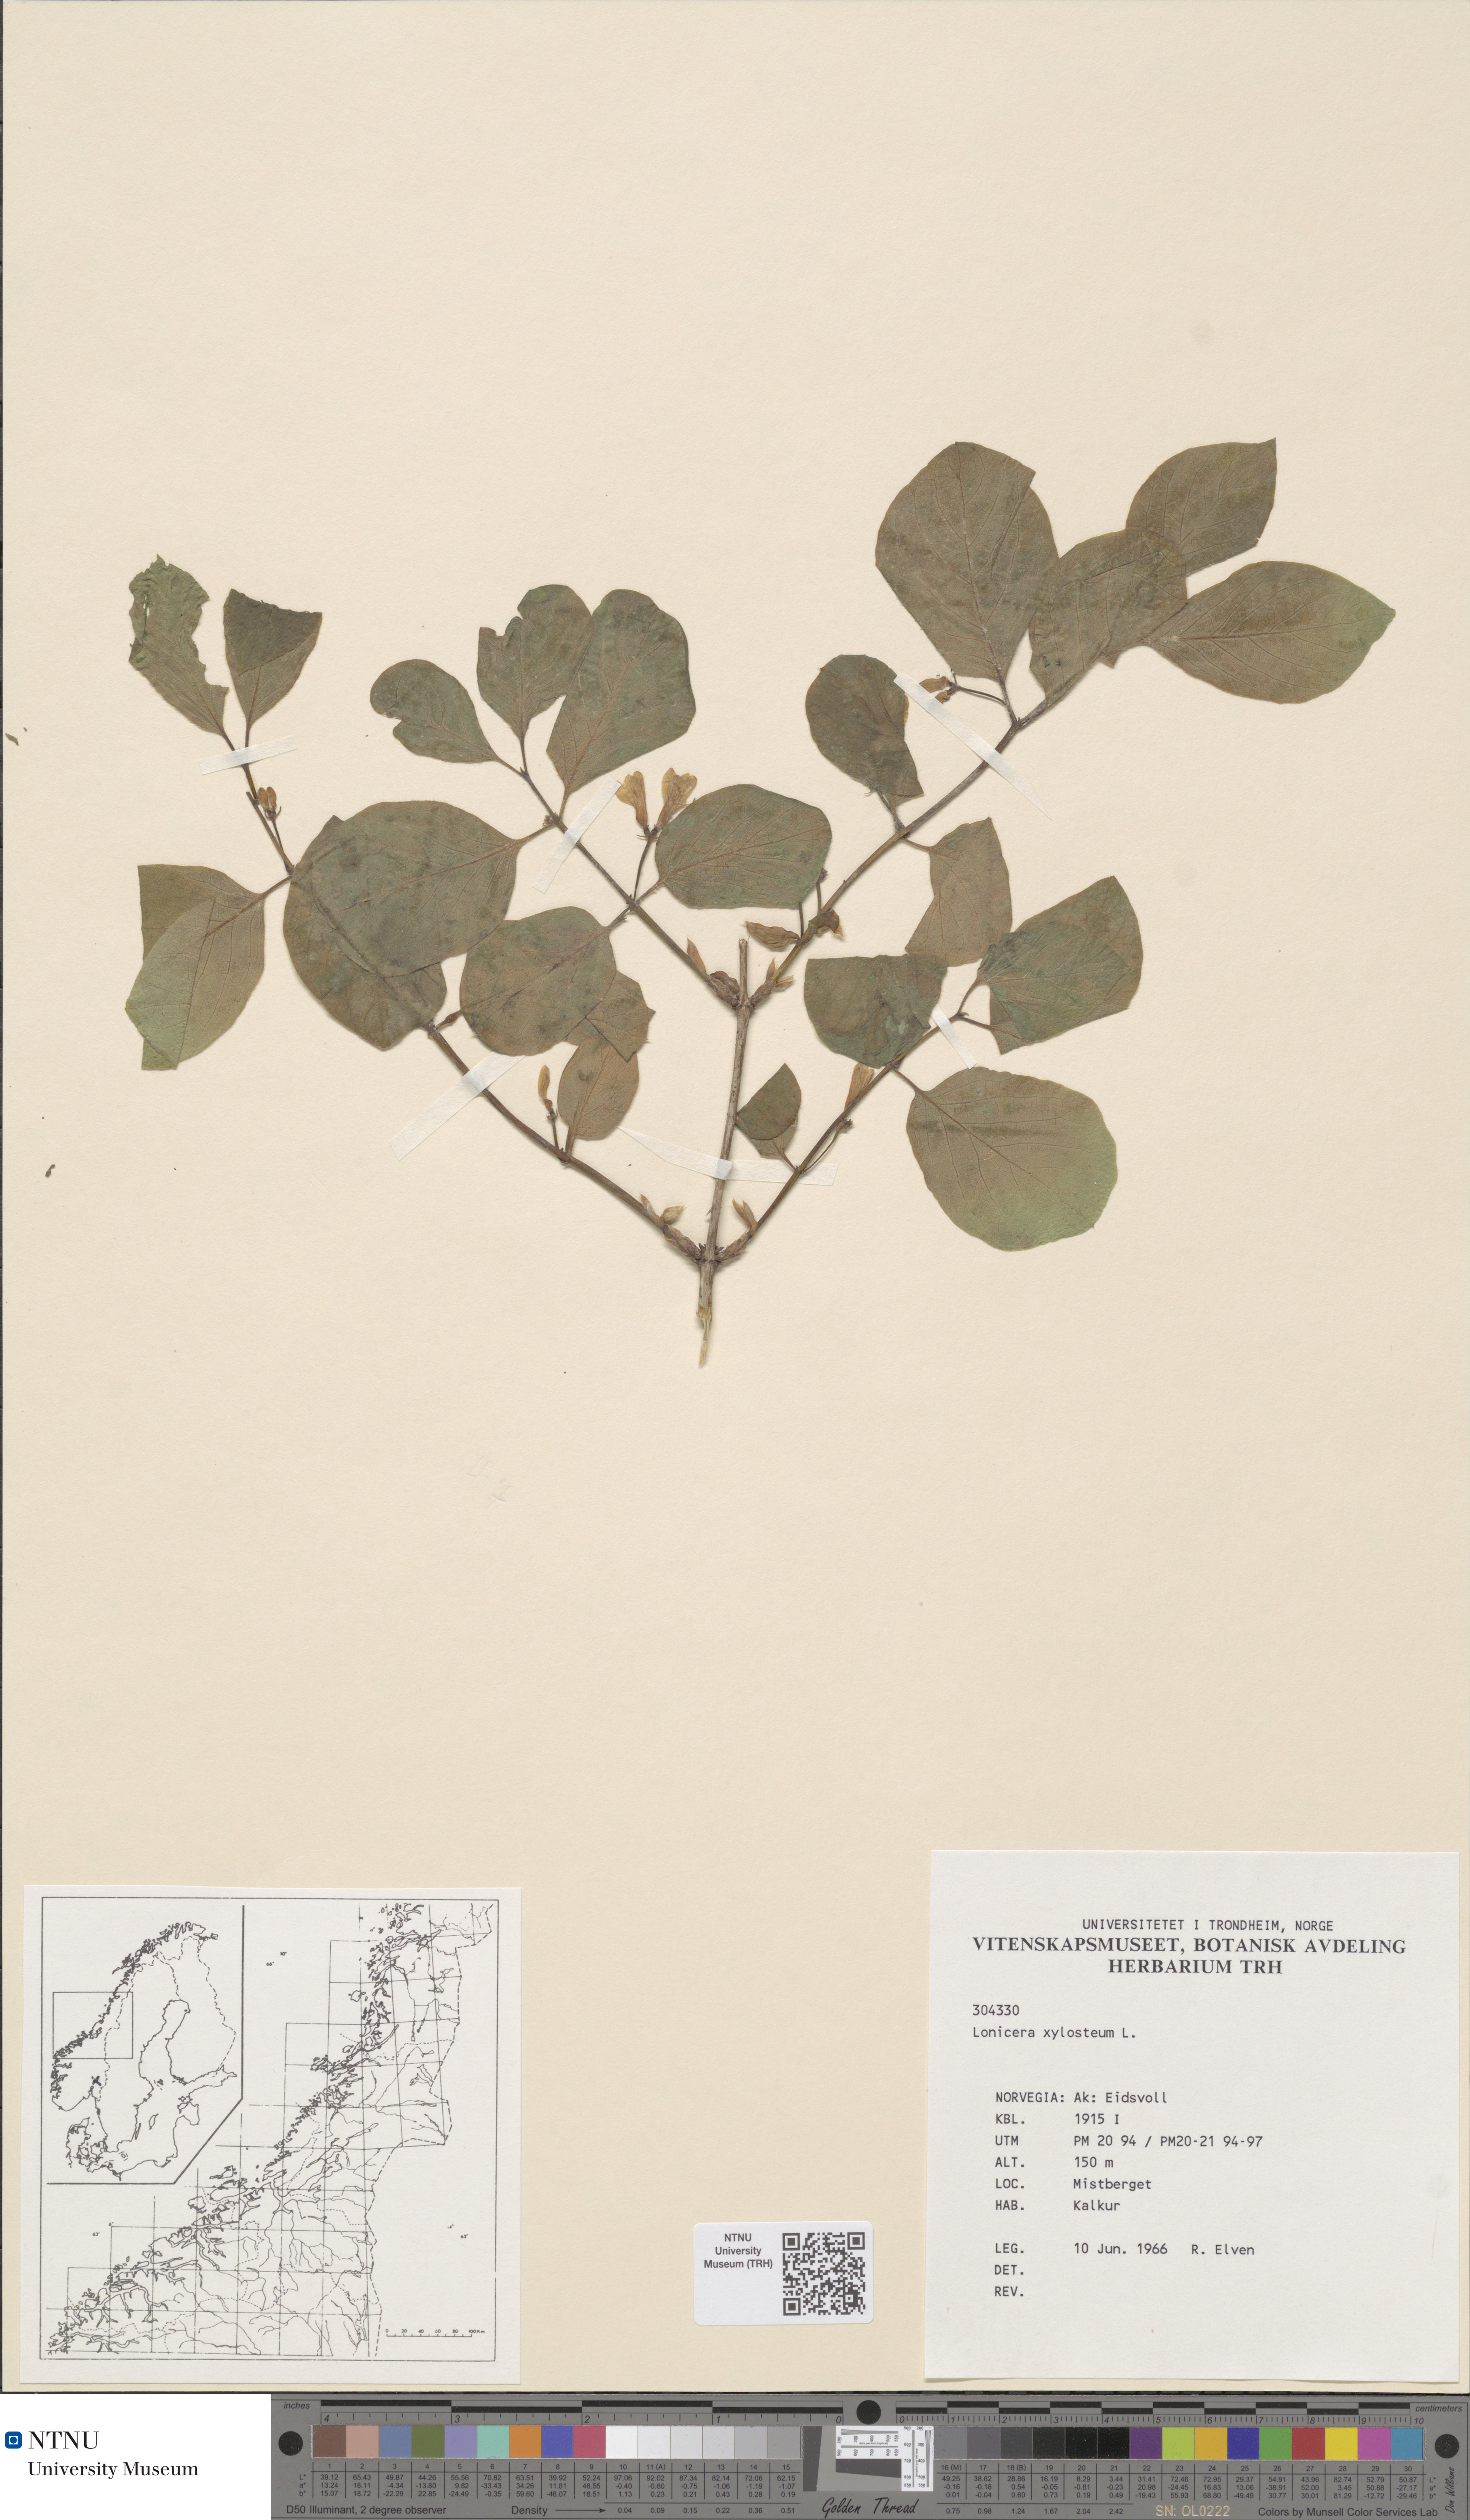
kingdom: Plantae
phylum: Tracheophyta
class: Magnoliopsida
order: Dipsacales
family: Caprifoliaceae
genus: Lonicera
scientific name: Lonicera xylosteum
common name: Fly honeysuckle
